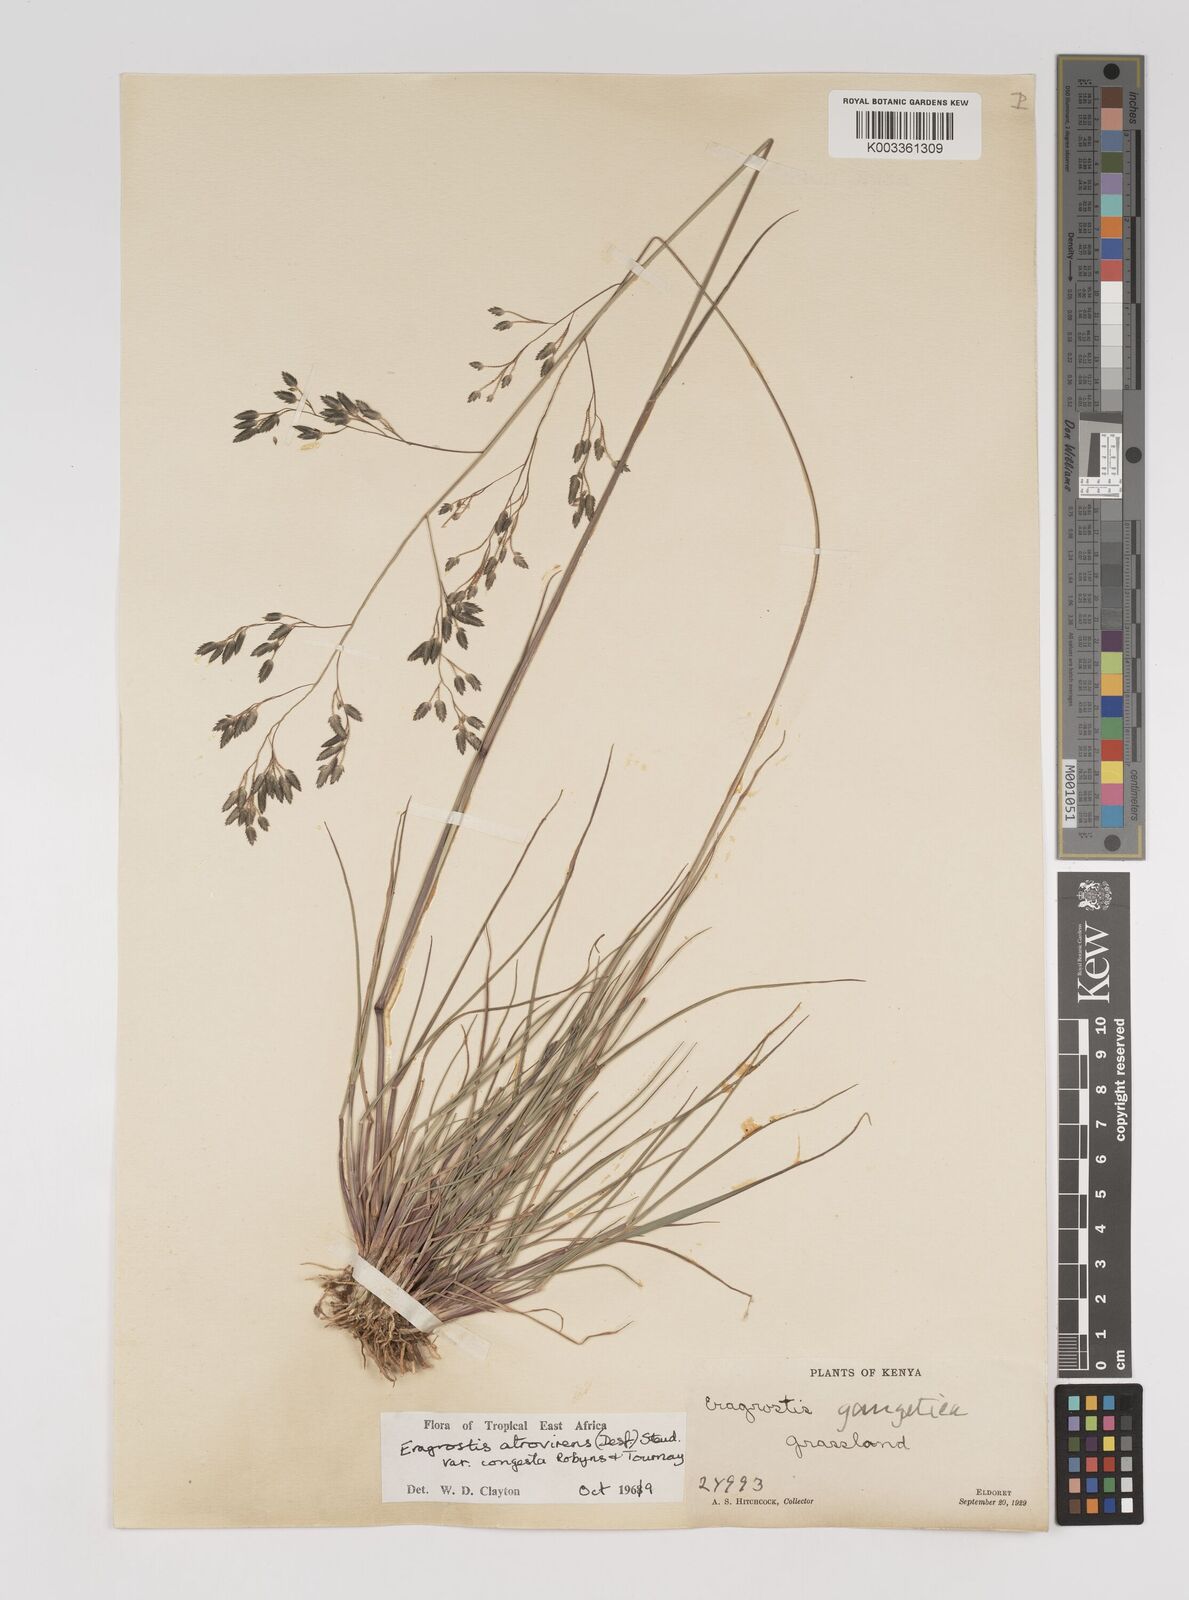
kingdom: Plantae
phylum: Tracheophyta
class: Liliopsida
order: Poales
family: Poaceae
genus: Eragrostis
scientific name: Eragrostis botryodes
